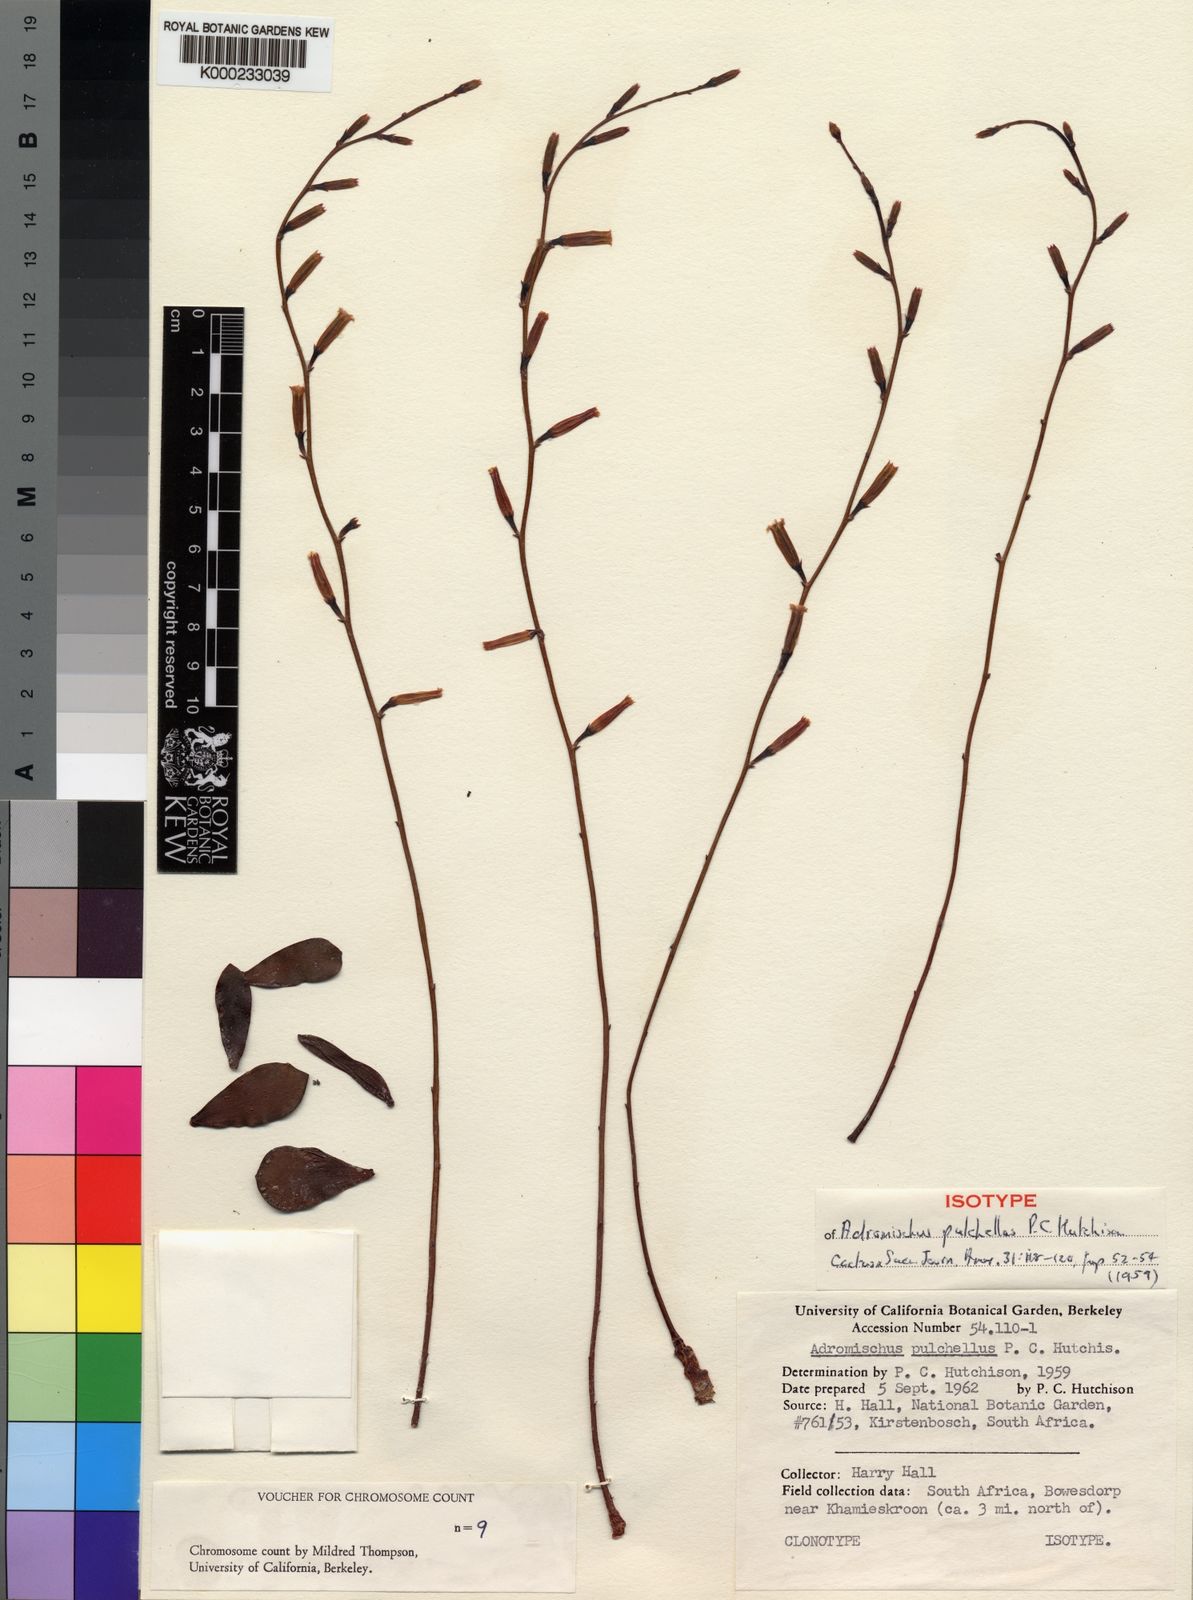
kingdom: Plantae
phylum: Tracheophyta
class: Magnoliopsida
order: Saxifragales
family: Crassulaceae
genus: Adromischus
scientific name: Adromischus
